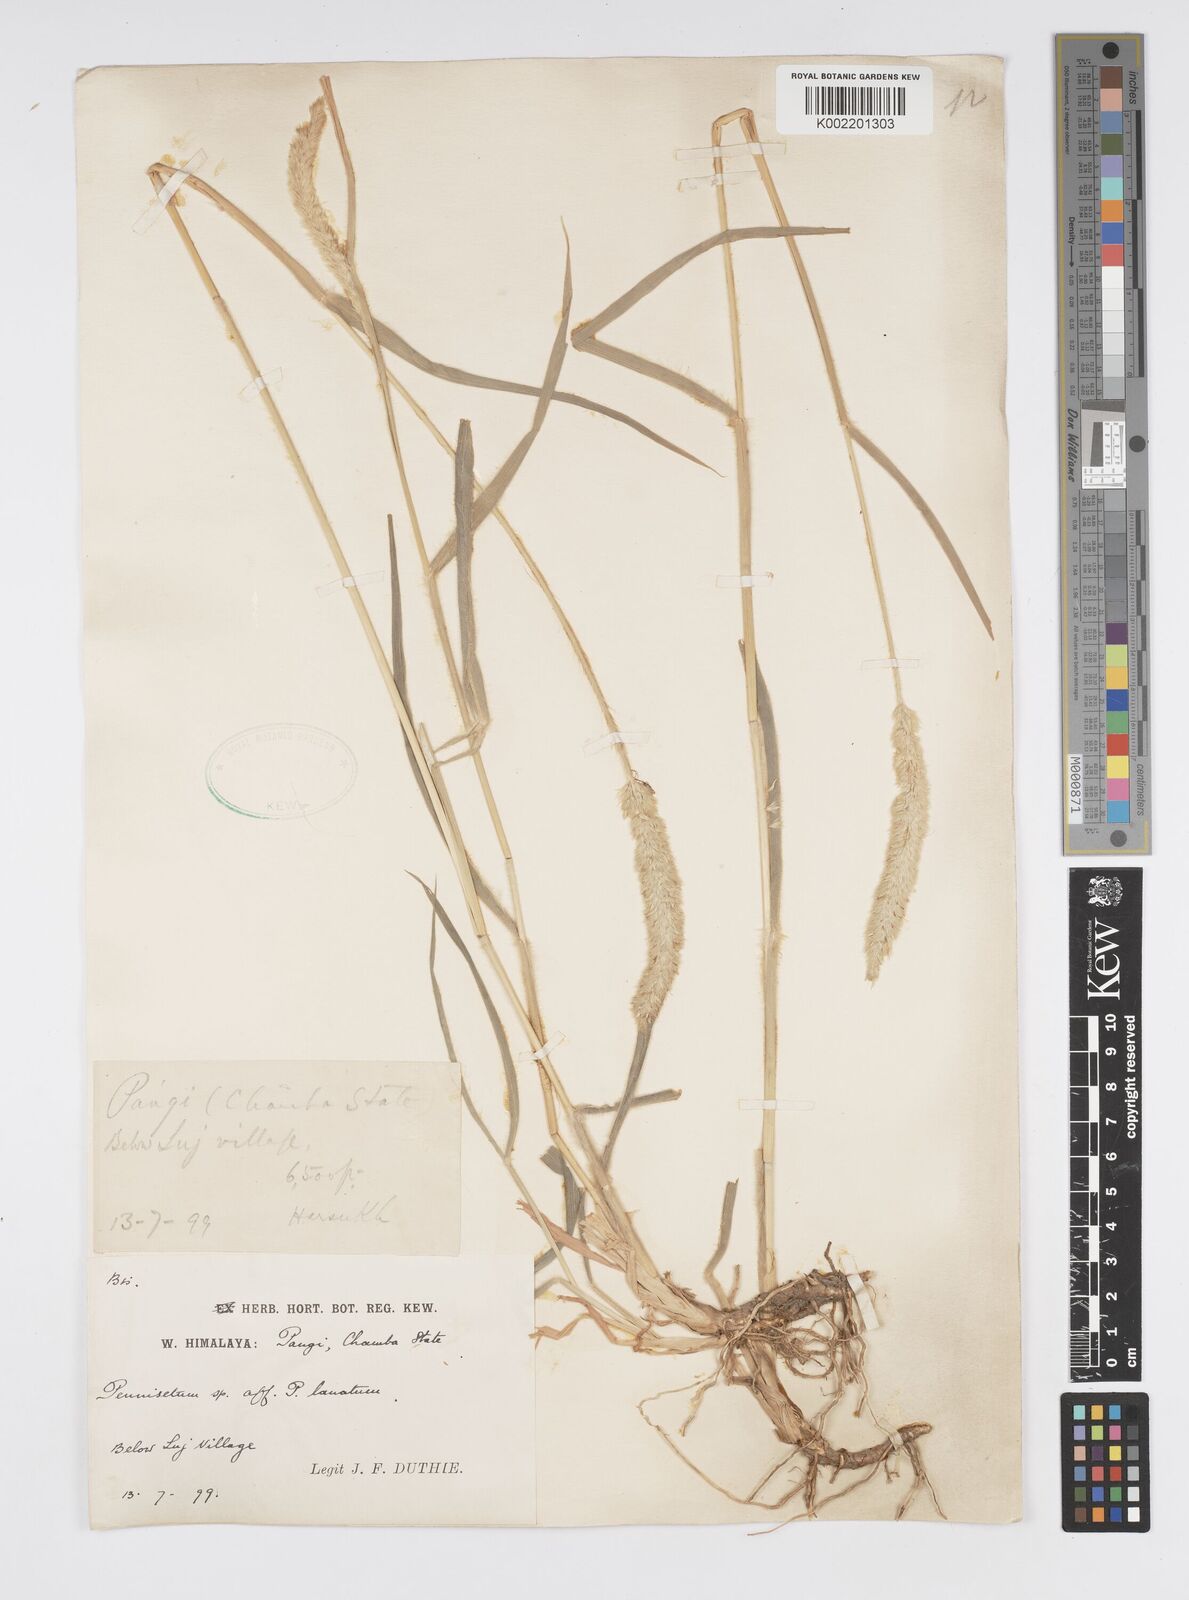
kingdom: Plantae
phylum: Tracheophyta
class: Liliopsida
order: Poales
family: Poaceae
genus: Cenchrus
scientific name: Cenchrus lanatus
